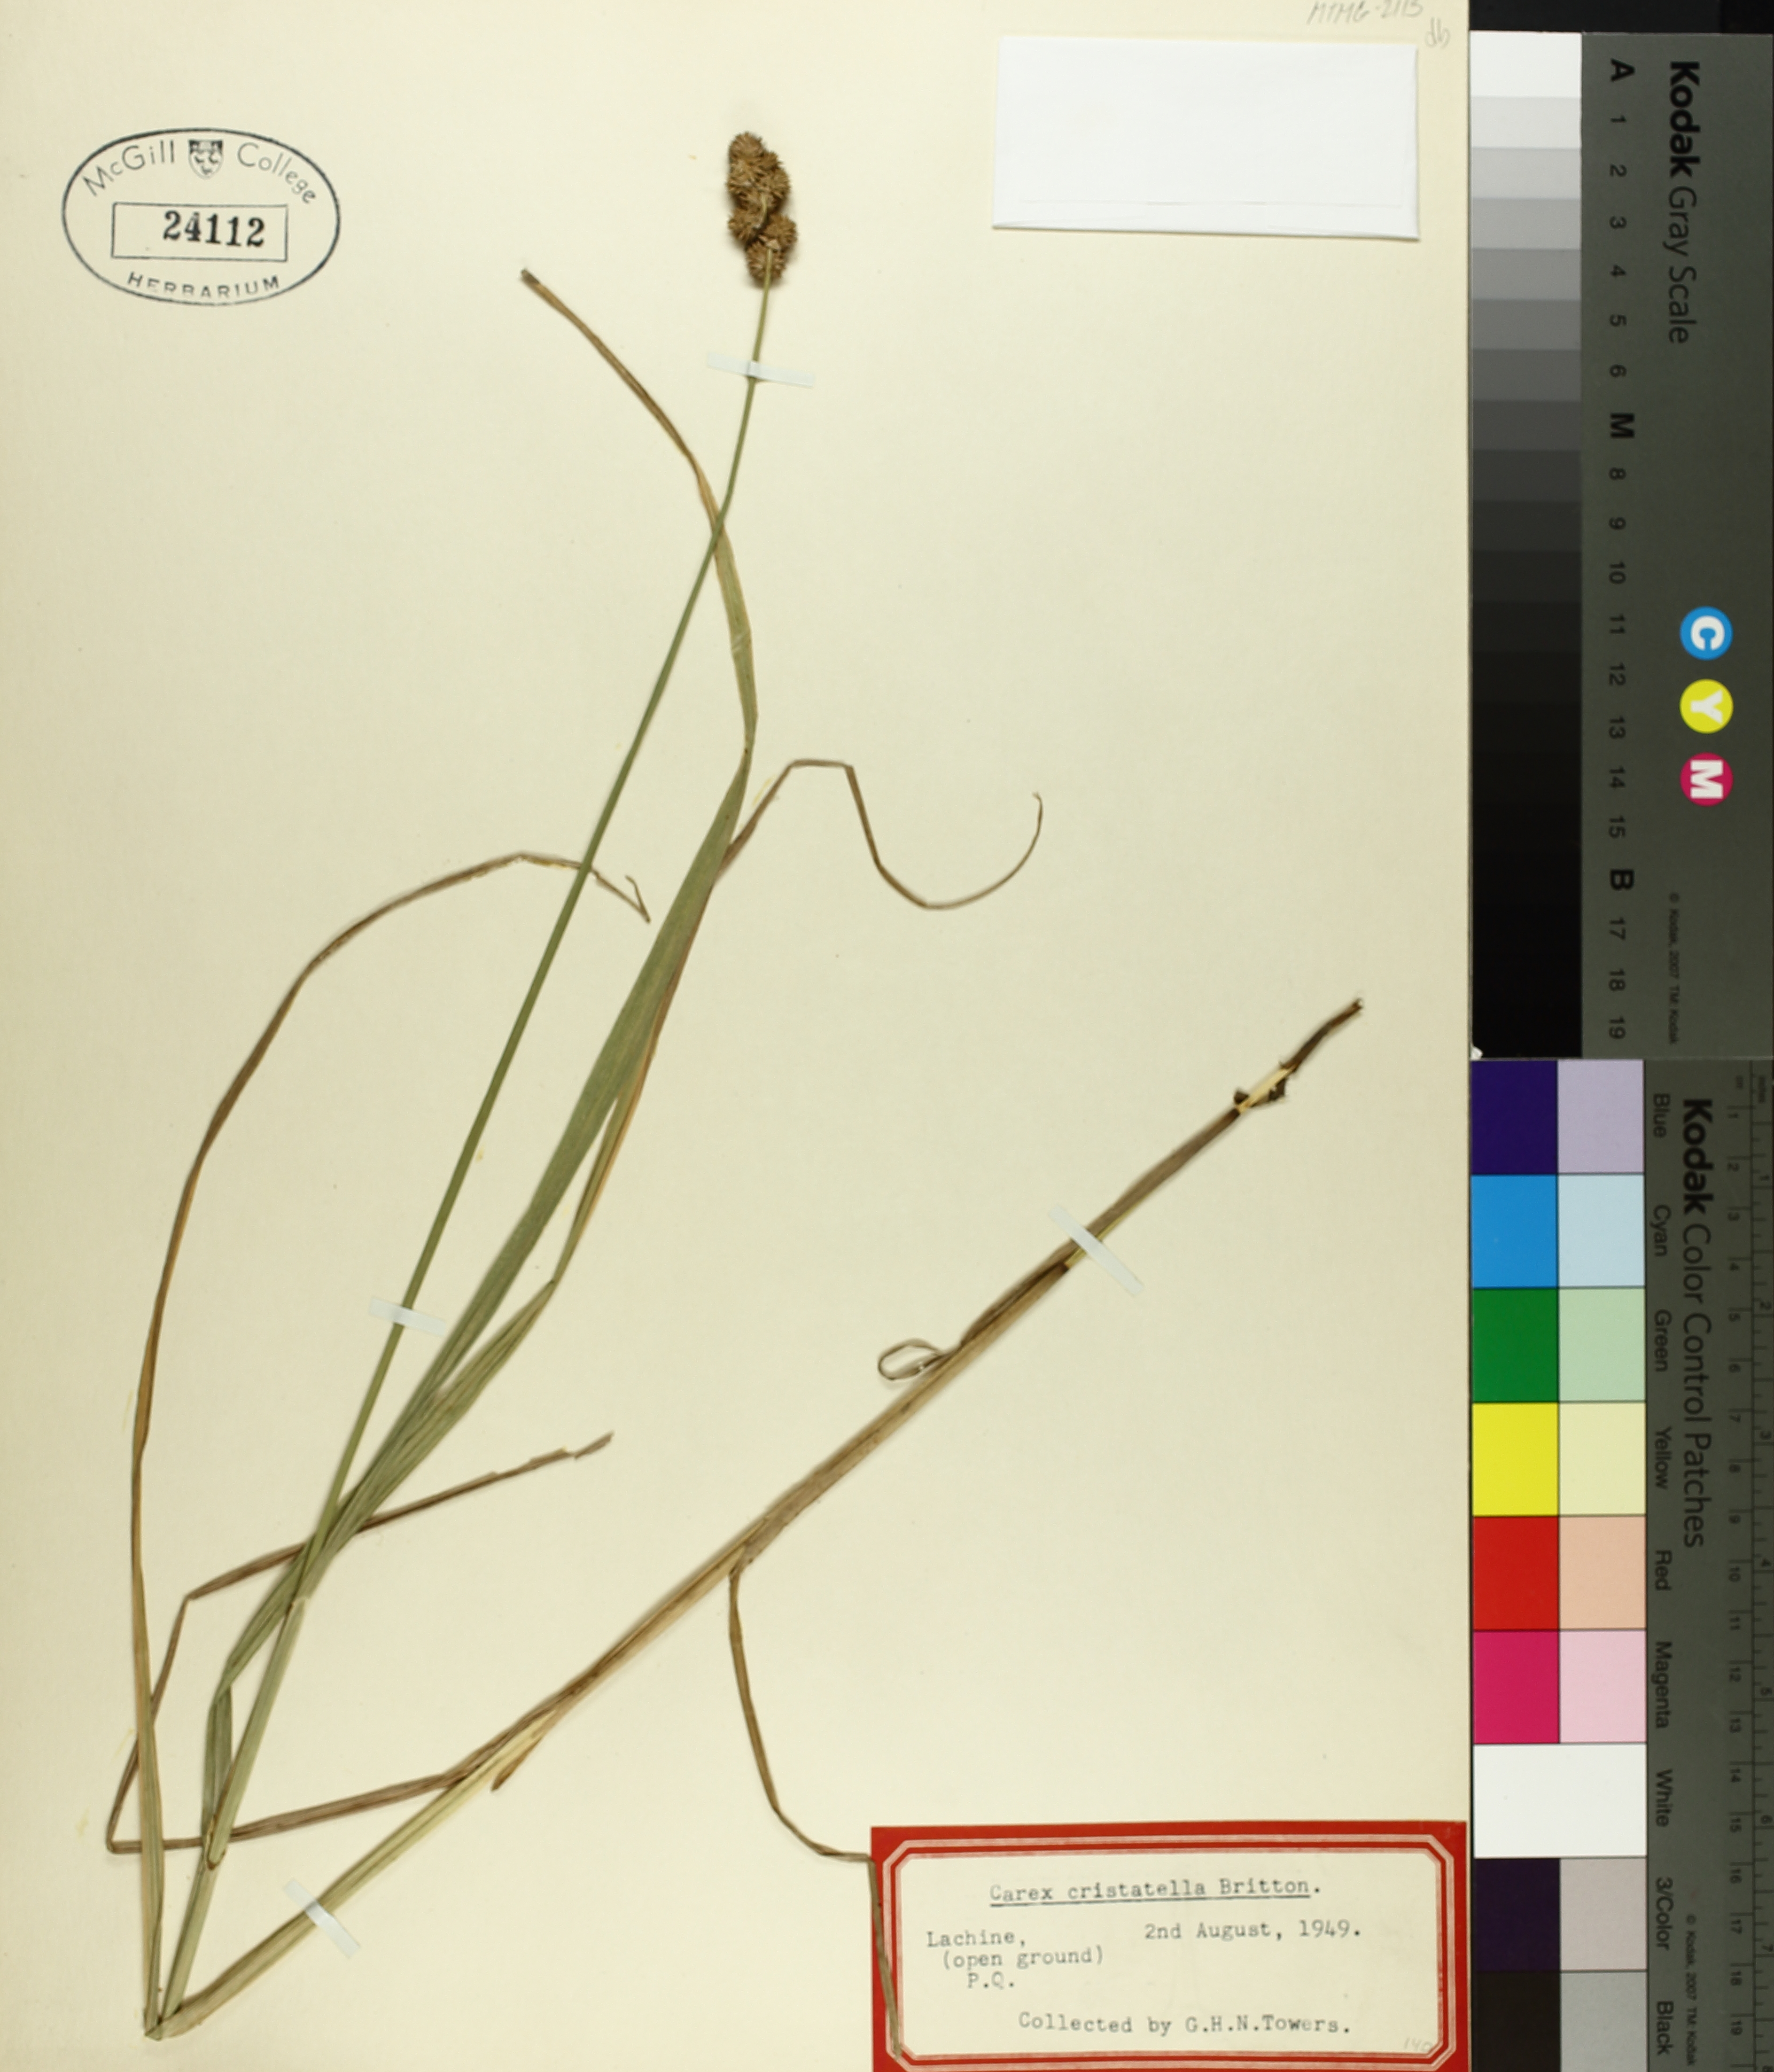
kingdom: Plantae
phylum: Tracheophyta
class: Liliopsida
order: Poales
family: Cyperaceae
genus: Carex
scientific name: Carex cristatella
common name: Crested oval sedge
